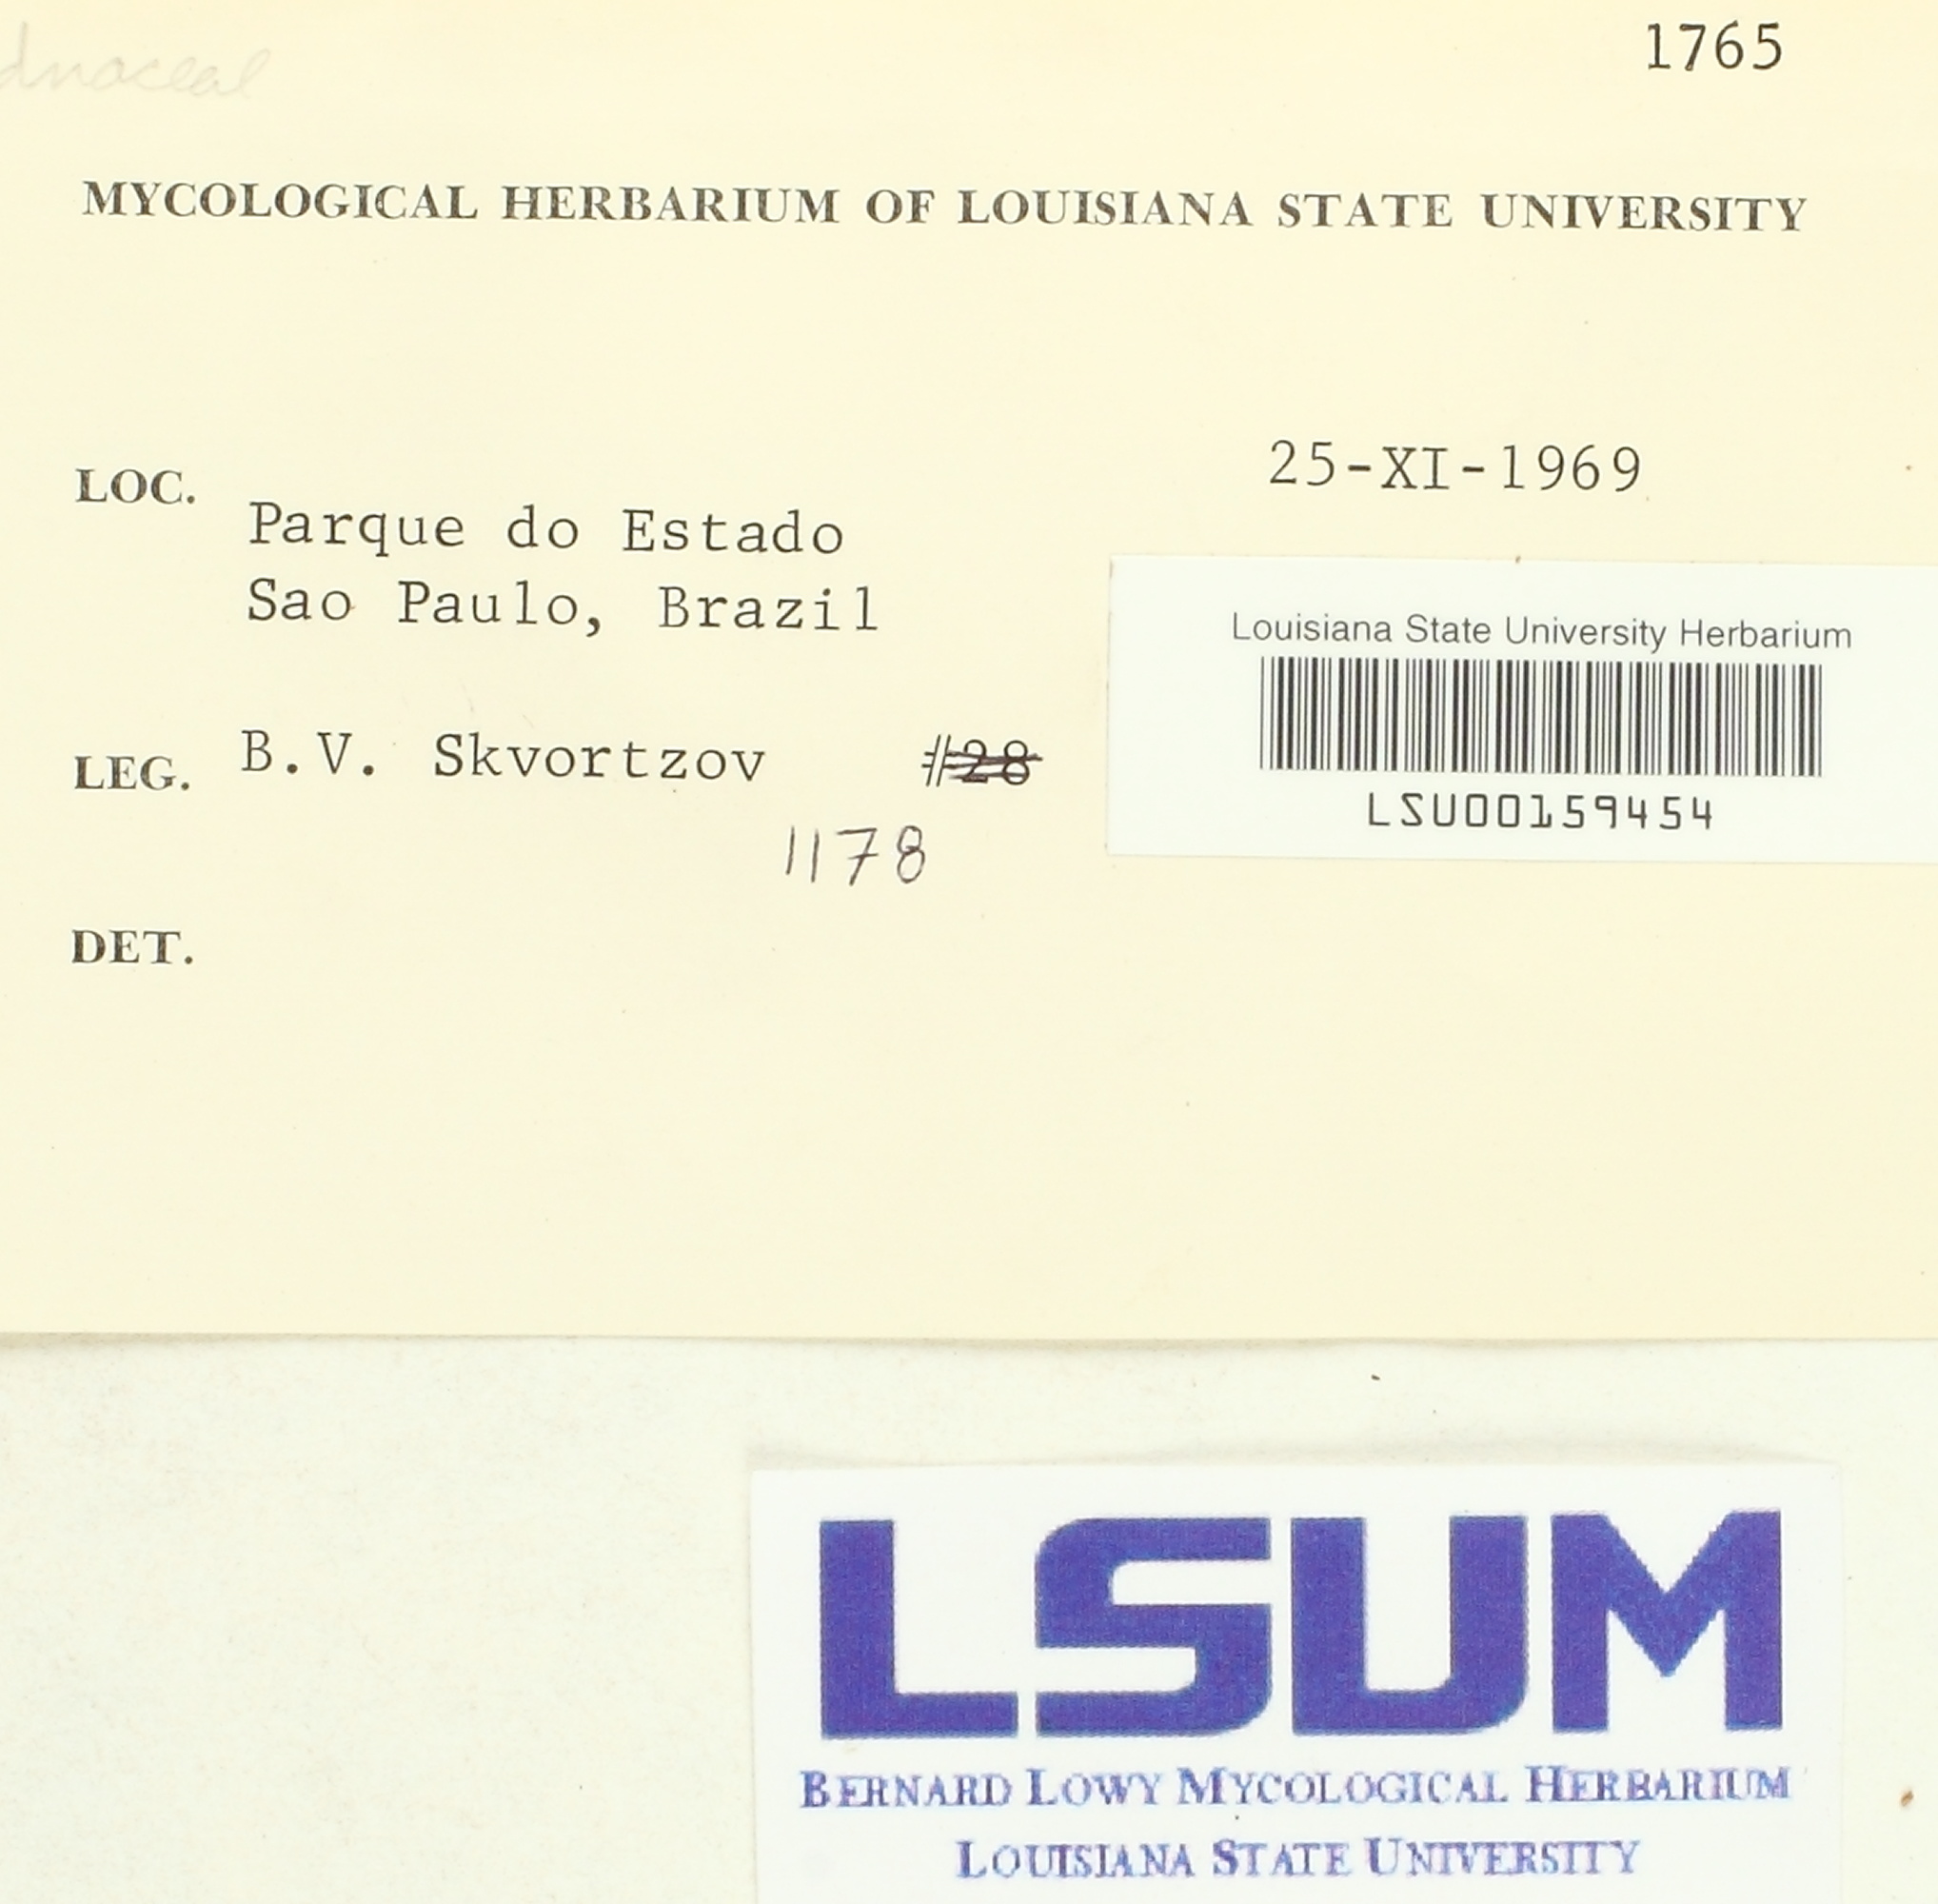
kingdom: Fungi
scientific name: Fungi
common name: Fungi
